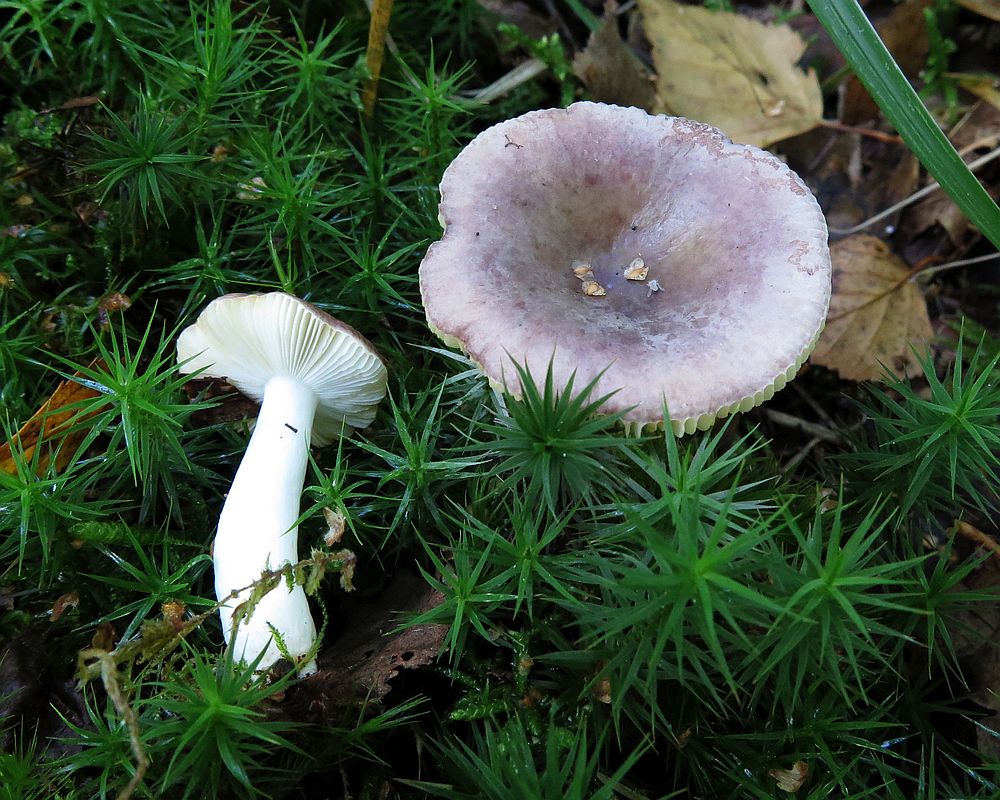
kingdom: Fungi
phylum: Basidiomycota
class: Agaricomycetes
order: Russulales
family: Russulaceae
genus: Russula
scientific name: Russula fragilis
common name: savbladet skørhat
